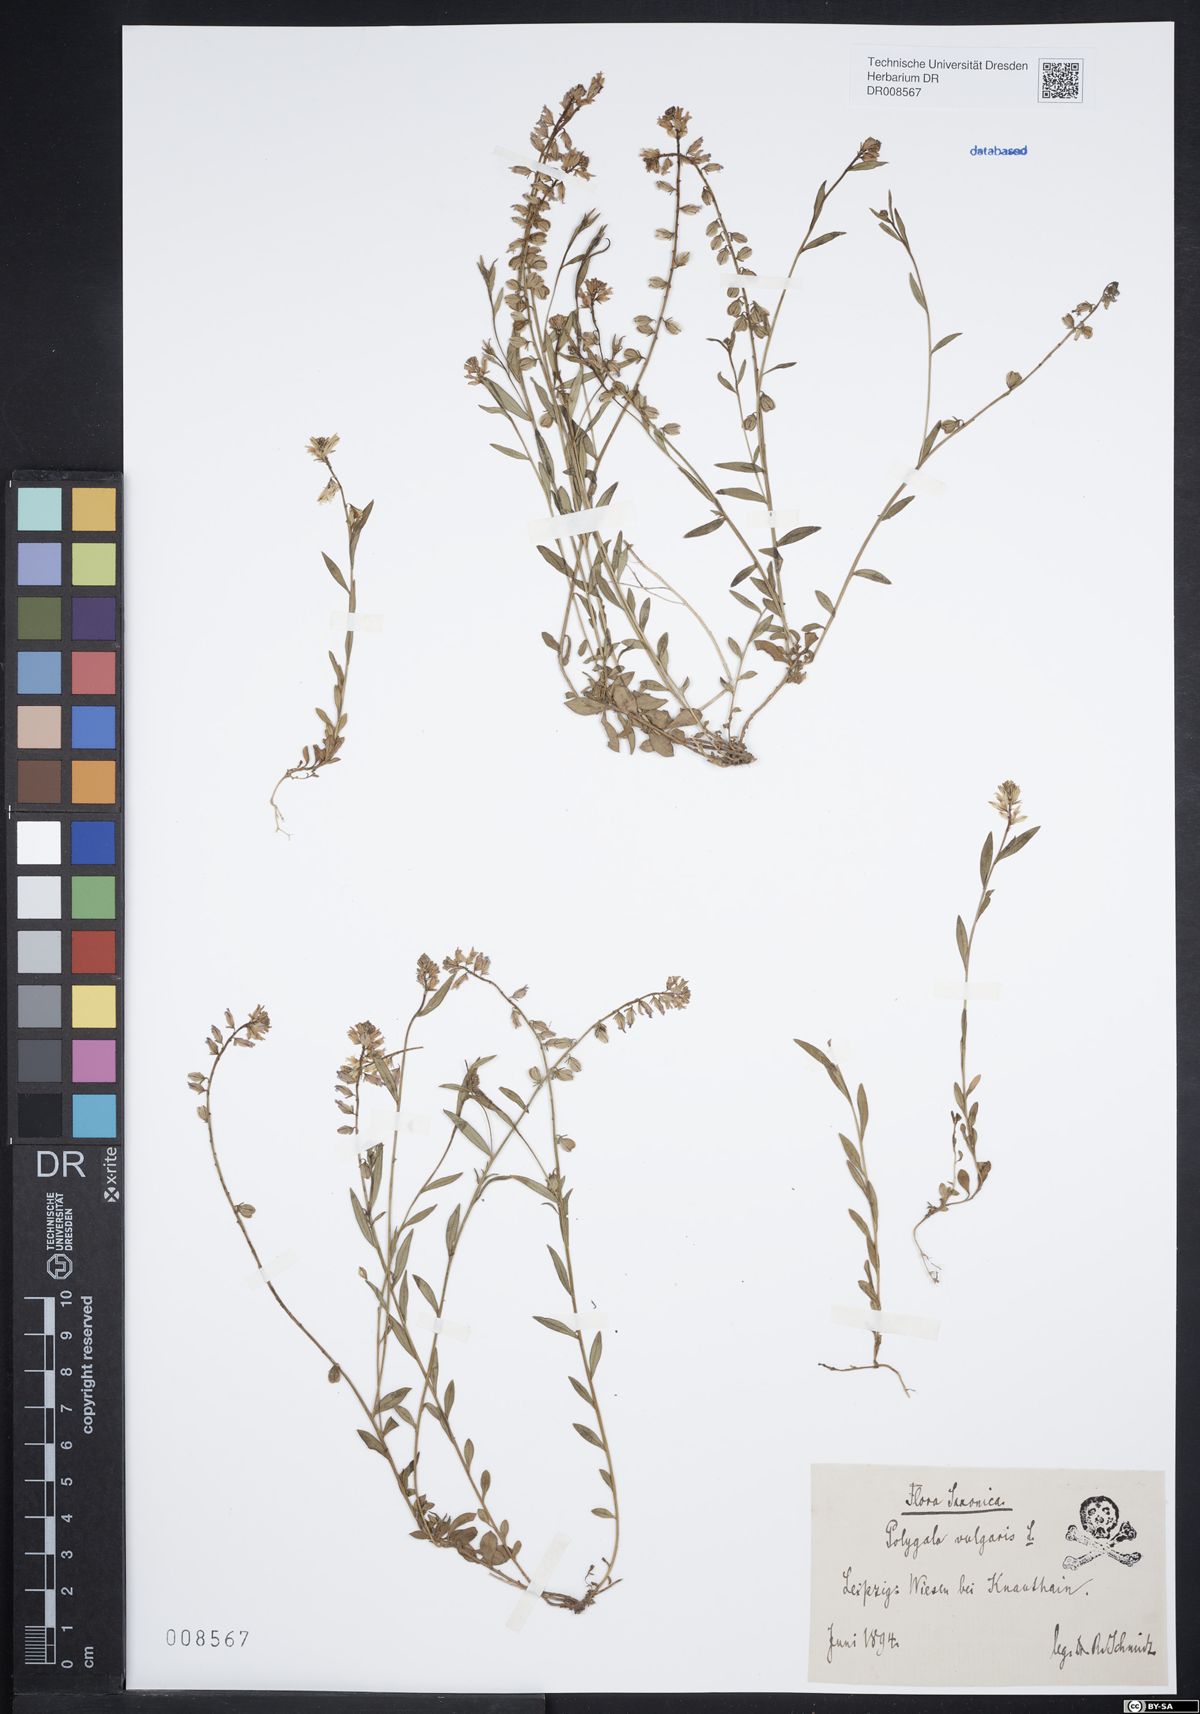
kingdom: Plantae
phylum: Tracheophyta
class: Magnoliopsida
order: Fabales
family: Polygalaceae
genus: Polygala
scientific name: Polygala vulgaris
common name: Common milkwort
